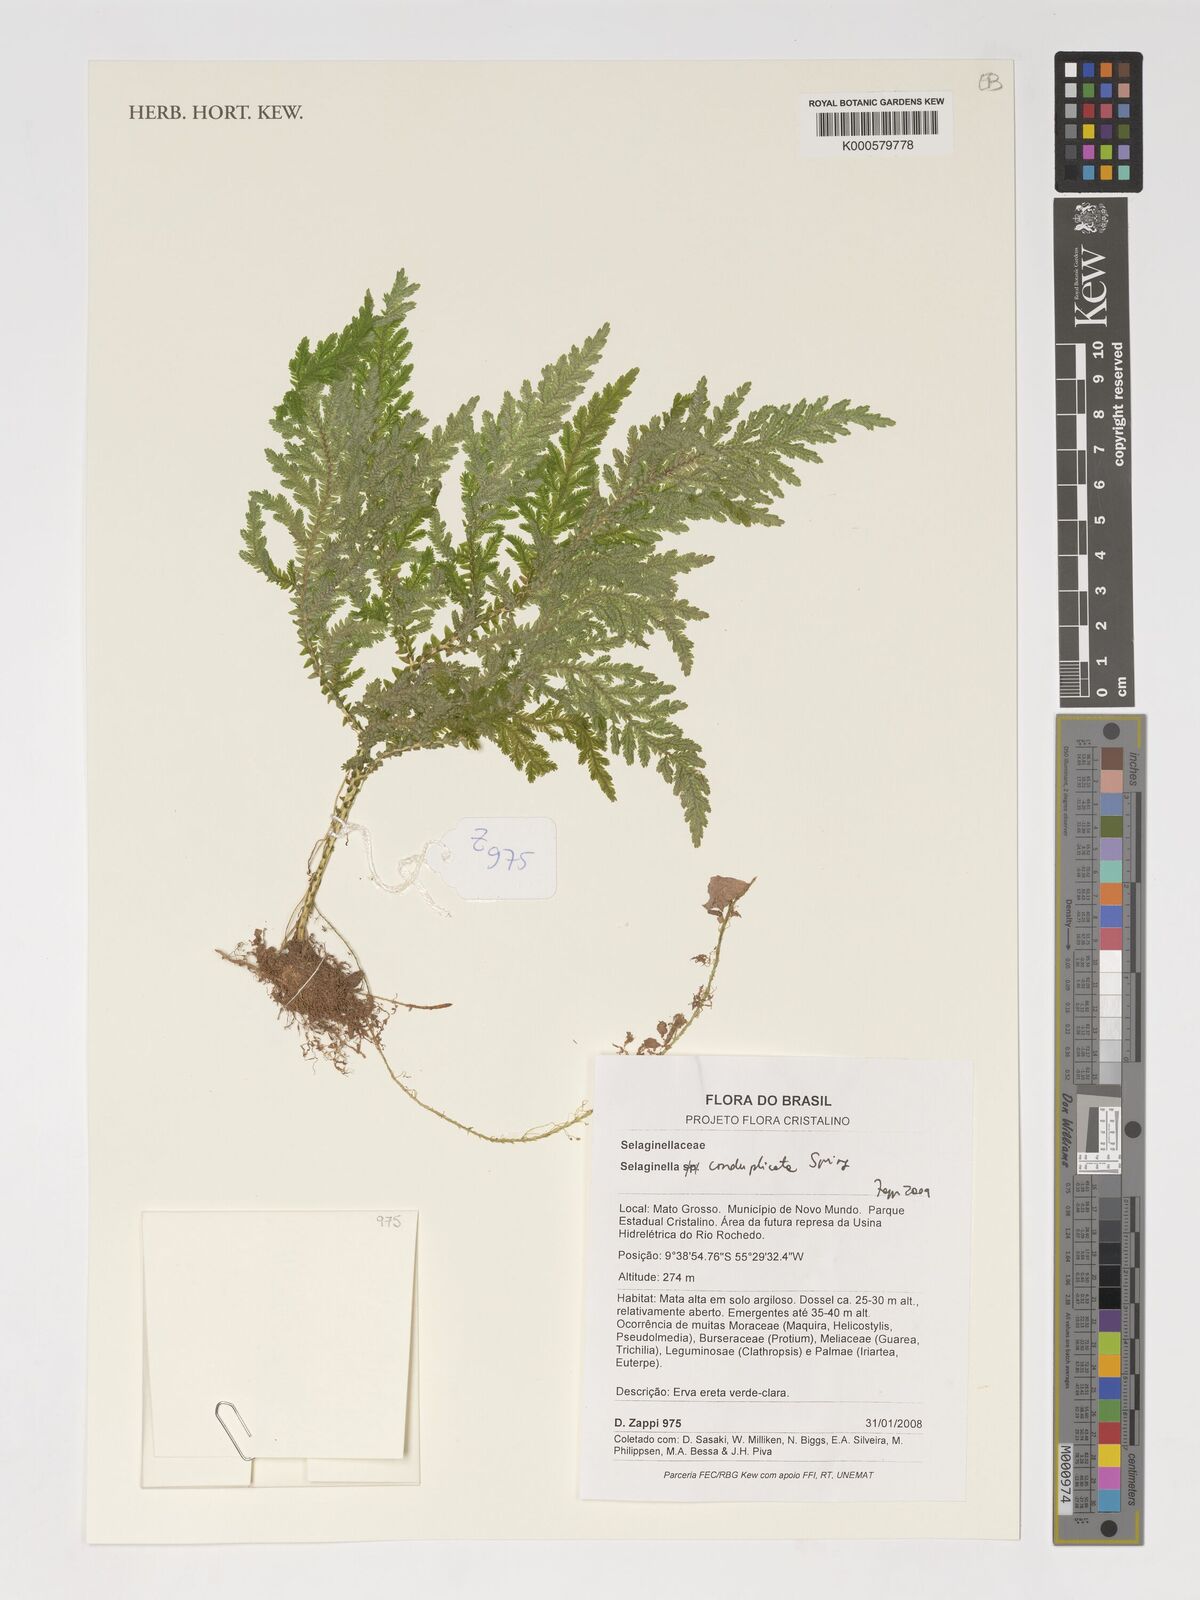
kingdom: Plantae
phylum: Tracheophyta
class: Lycopodiopsida
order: Selaginellales
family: Selaginellaceae
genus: Selaginella
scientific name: Selaginella conduplicata
